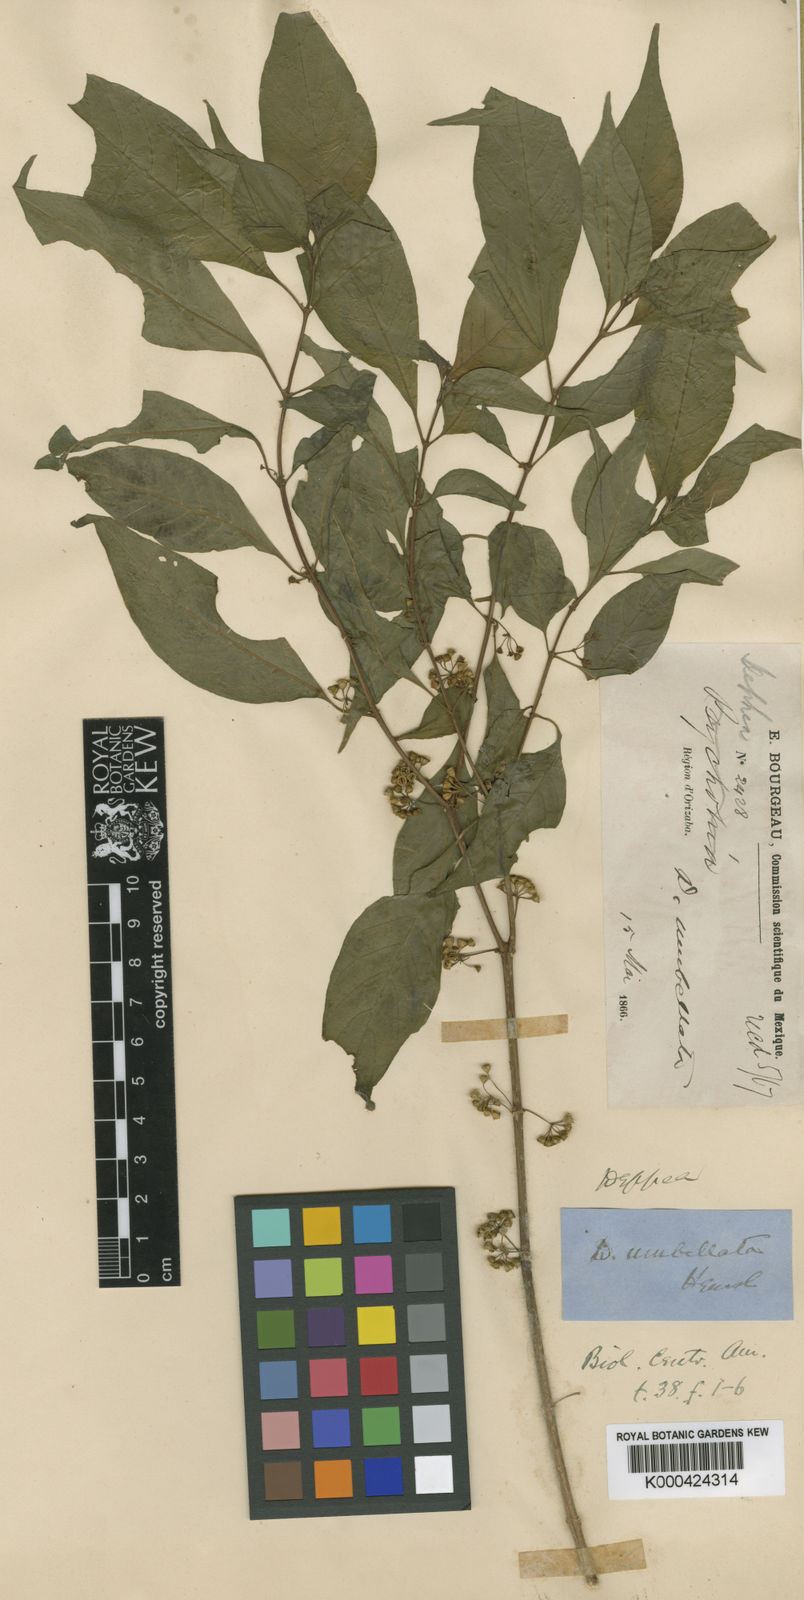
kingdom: Plantae
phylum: Tracheophyta
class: Magnoliopsida
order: Gentianales
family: Rubiaceae
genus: Deppea
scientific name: Deppea umbellata
